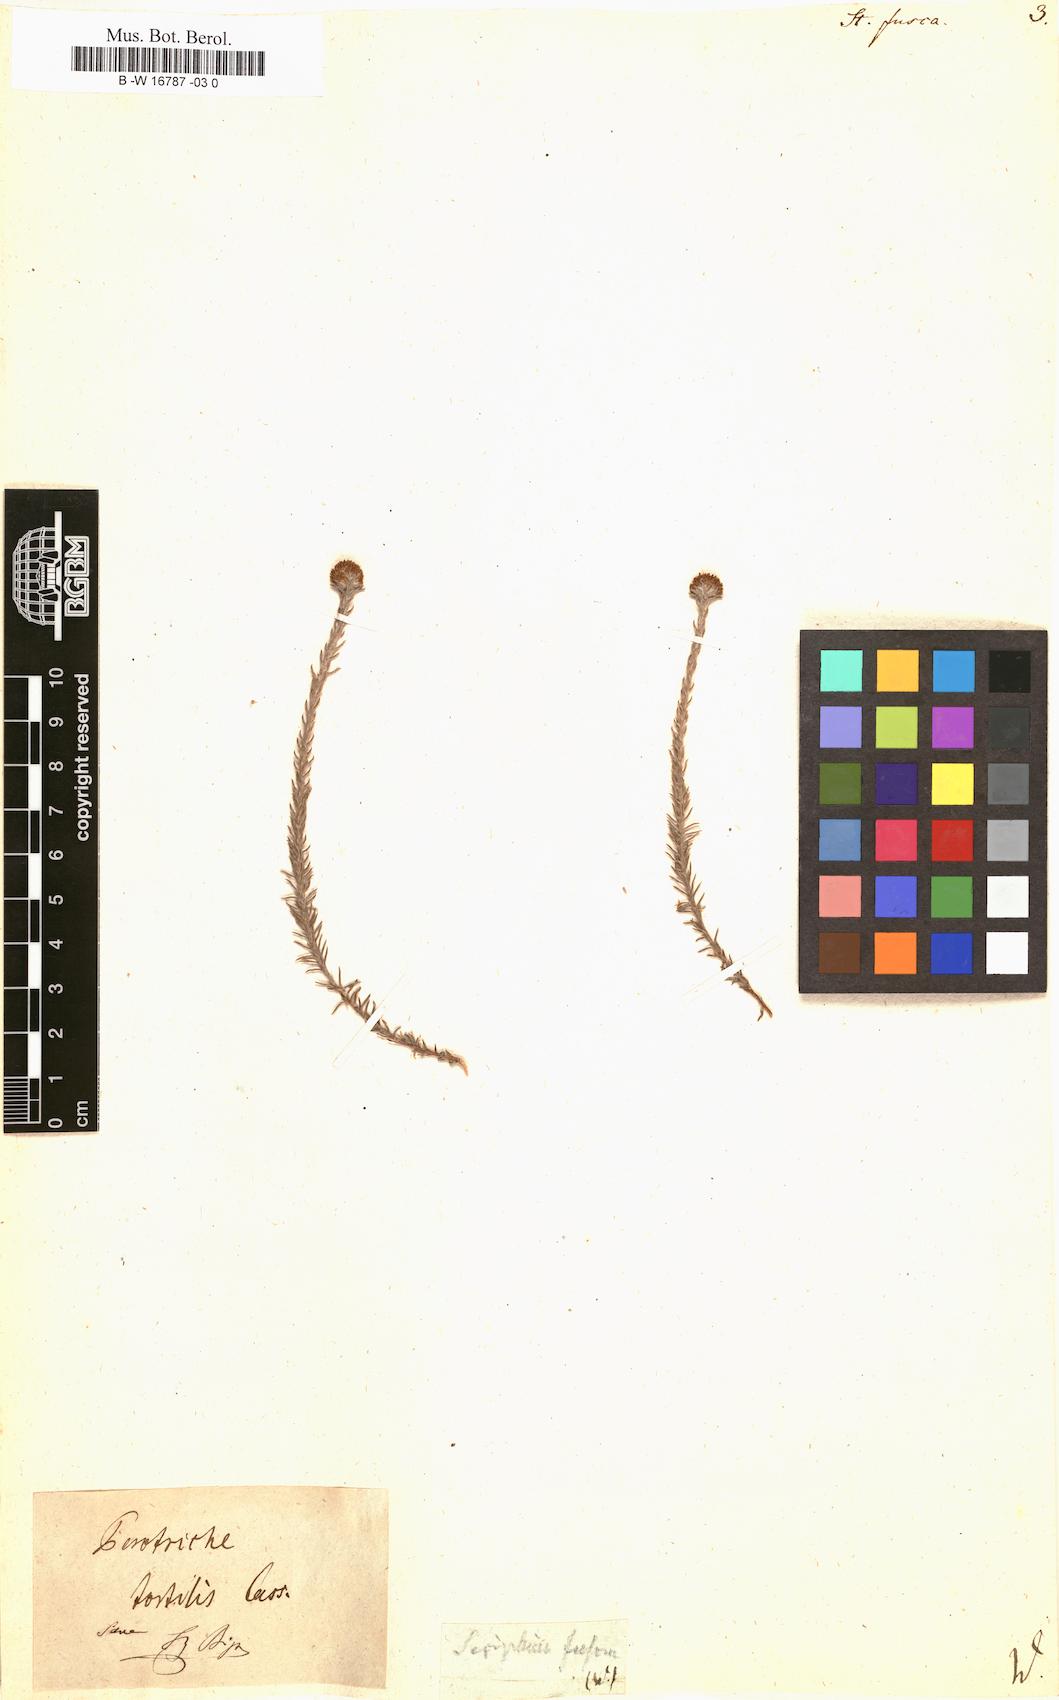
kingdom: Plantae
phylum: Tracheophyta
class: Magnoliopsida
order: Asterales
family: Asteraceae
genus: Stoebe
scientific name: Stoebe fusca
